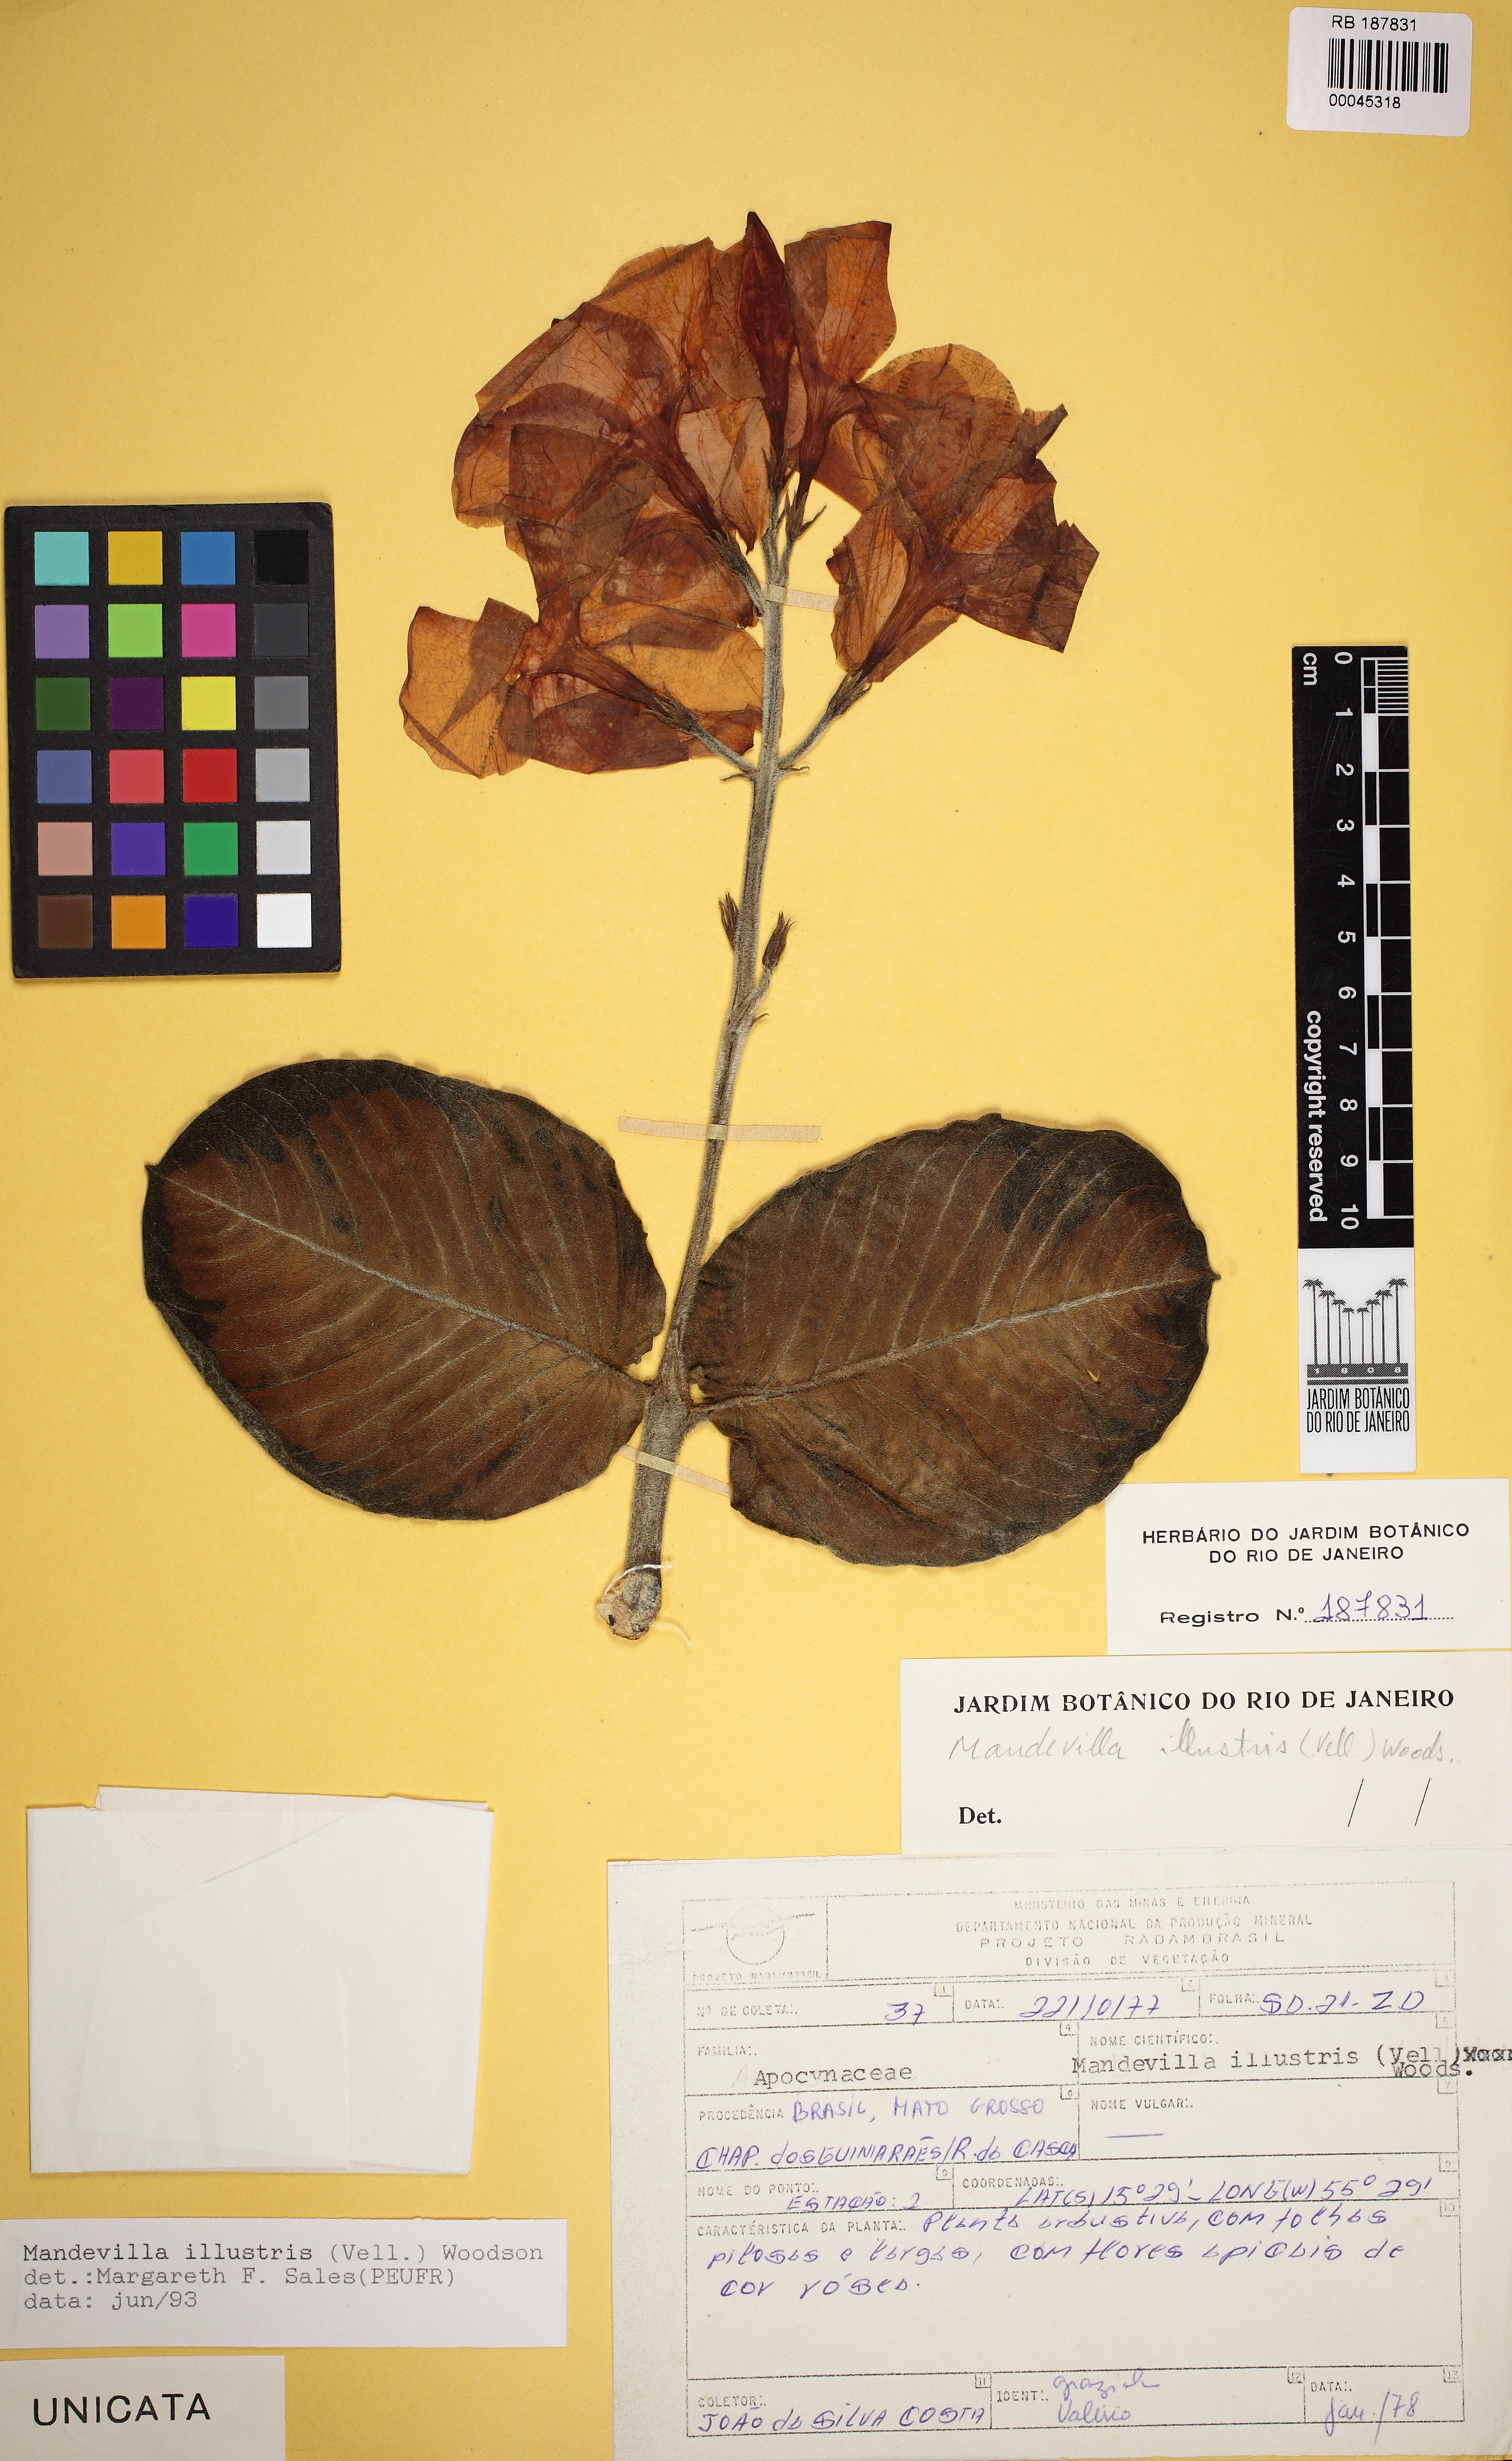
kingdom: Plantae
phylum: Tracheophyta
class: Magnoliopsida
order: Gentianales
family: Apocynaceae
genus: Mandevilla
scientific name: Mandevilla illustris
